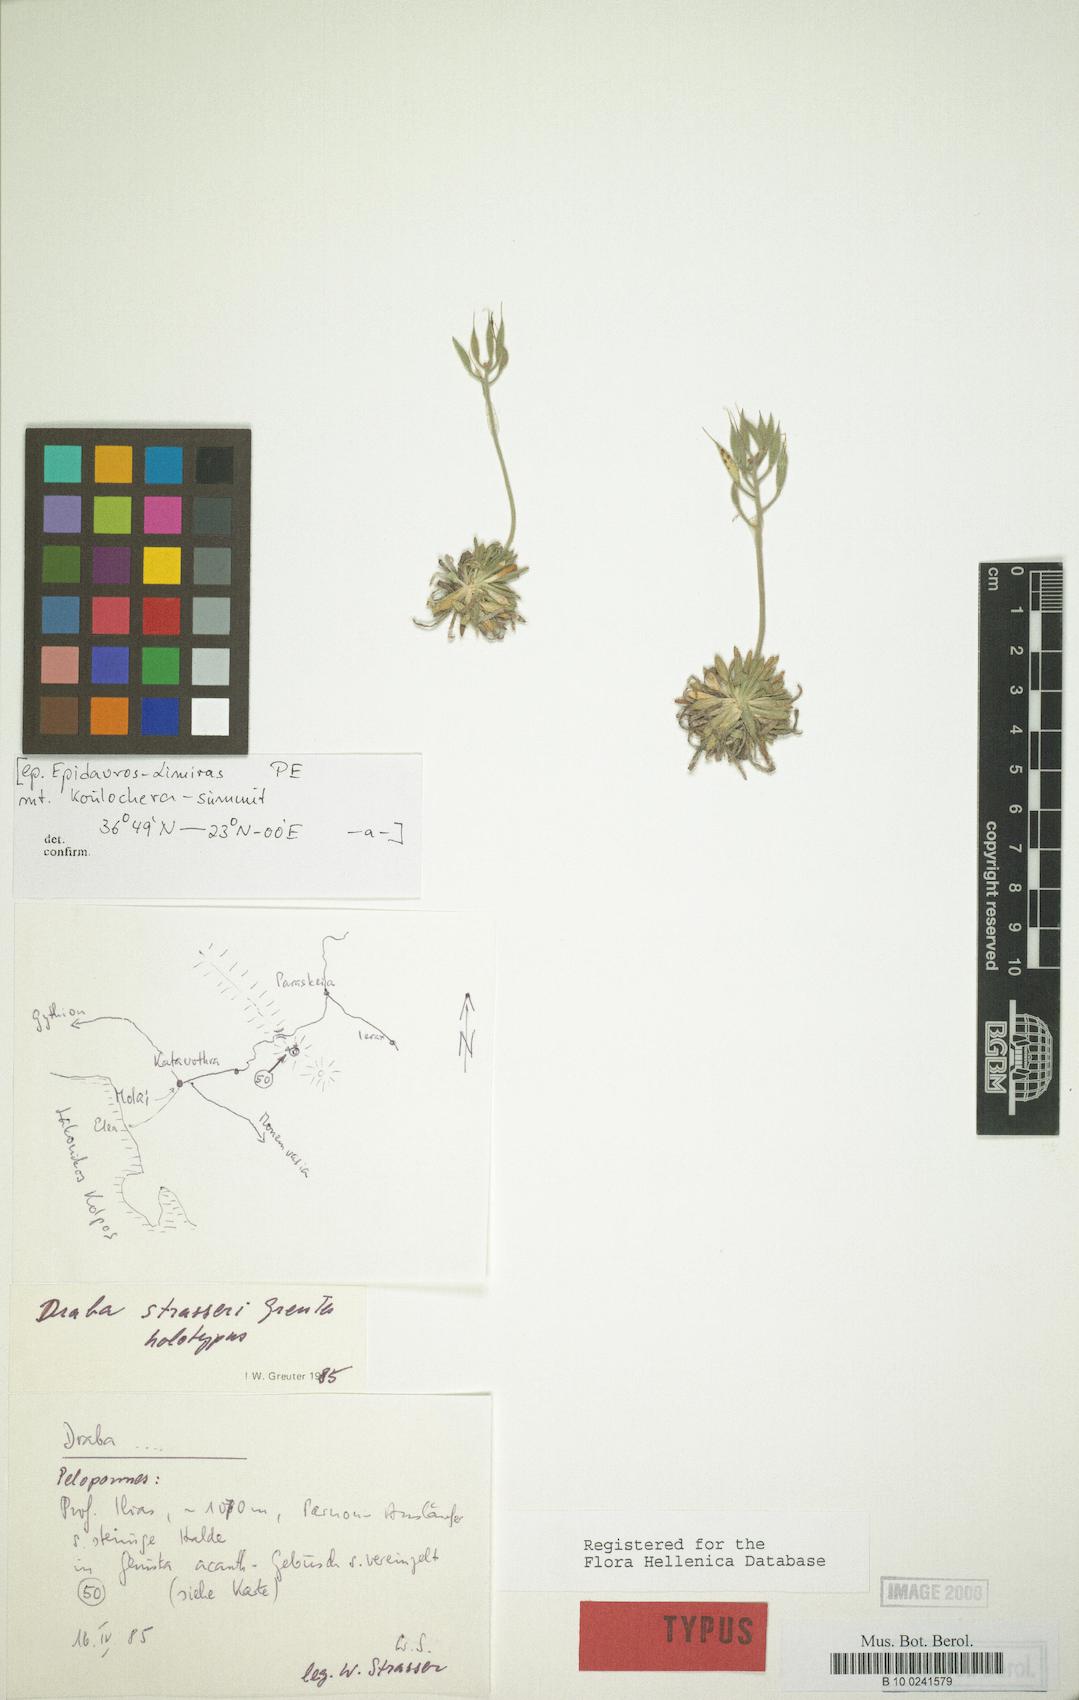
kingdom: Plantae
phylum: Tracheophyta
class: Magnoliopsida
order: Brassicales
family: Brassicaceae
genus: Draba
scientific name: Draba strasseri
